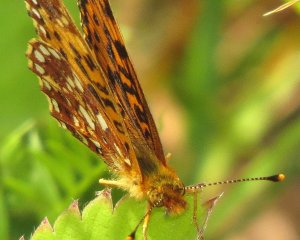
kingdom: Animalia
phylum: Arthropoda
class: Insecta
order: Lepidoptera
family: Nymphalidae
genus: Boloria
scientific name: Boloria selene
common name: Silver-bordered Fritillary
